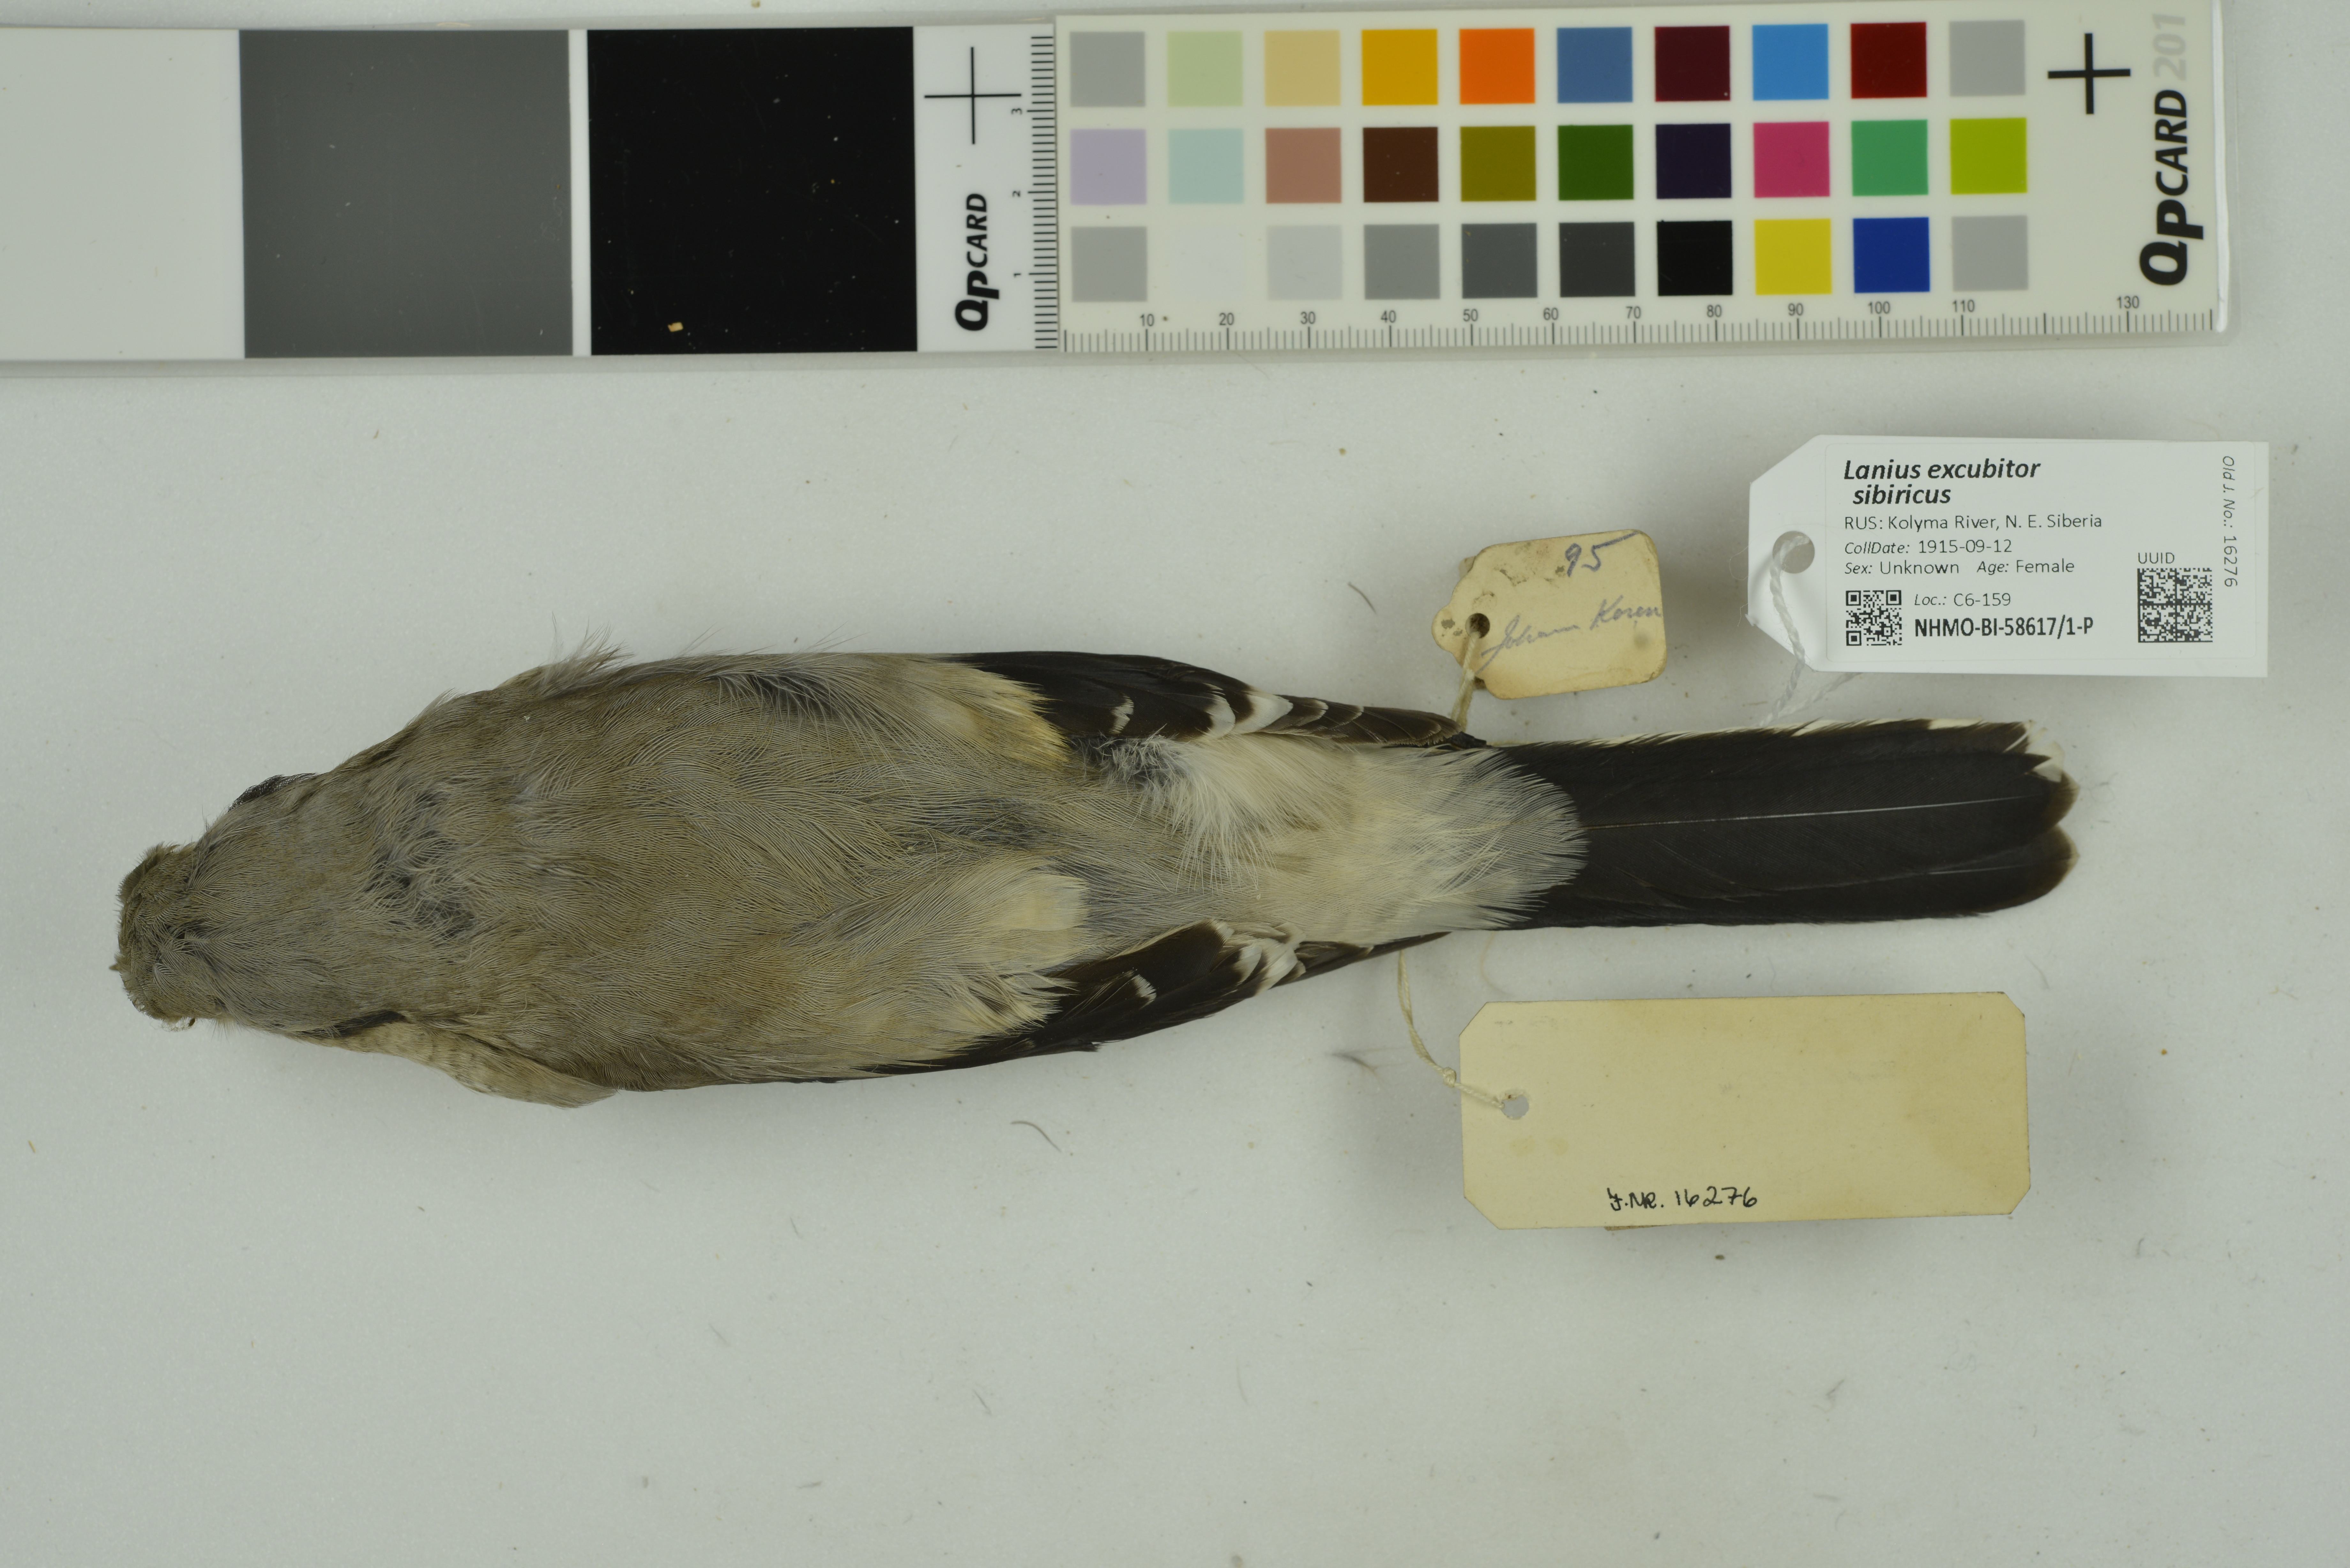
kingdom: Animalia
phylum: Chordata
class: Aves
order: Passeriformes
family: Laniidae
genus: Lanius
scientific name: Lanius borealis
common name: Northern shrike
